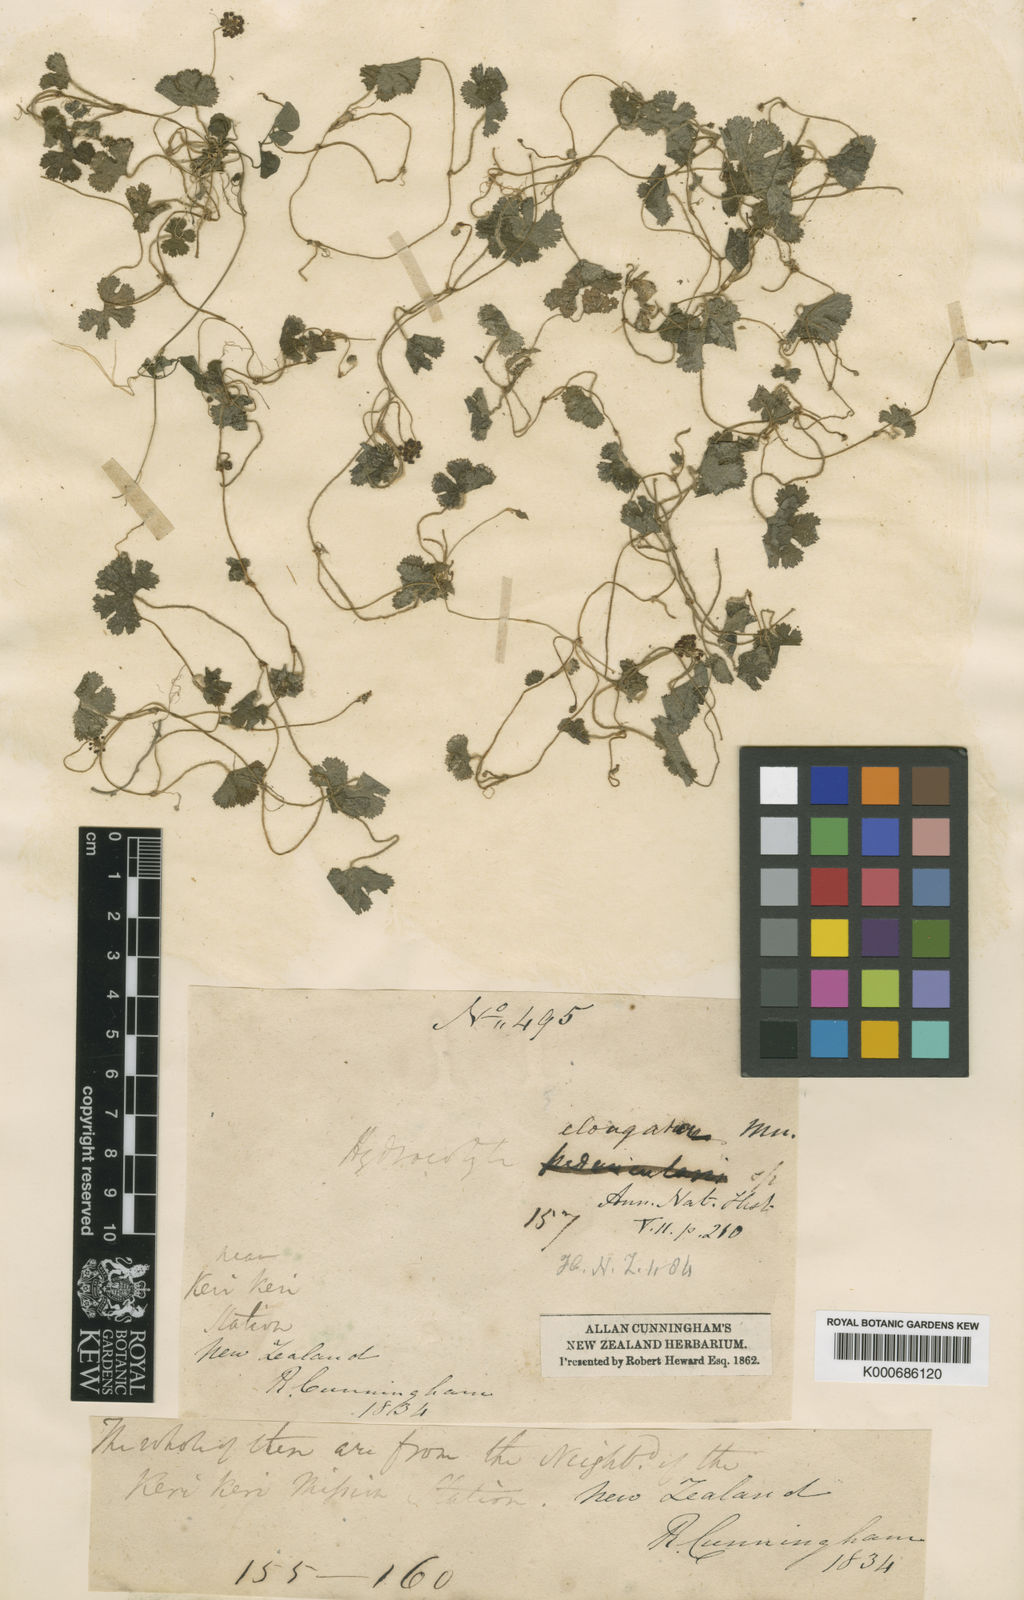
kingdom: Plantae
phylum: Tracheophyta
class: Magnoliopsida
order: Apiales
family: Araliaceae
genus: Hydrocotyle
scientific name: Hydrocotyle elongata
